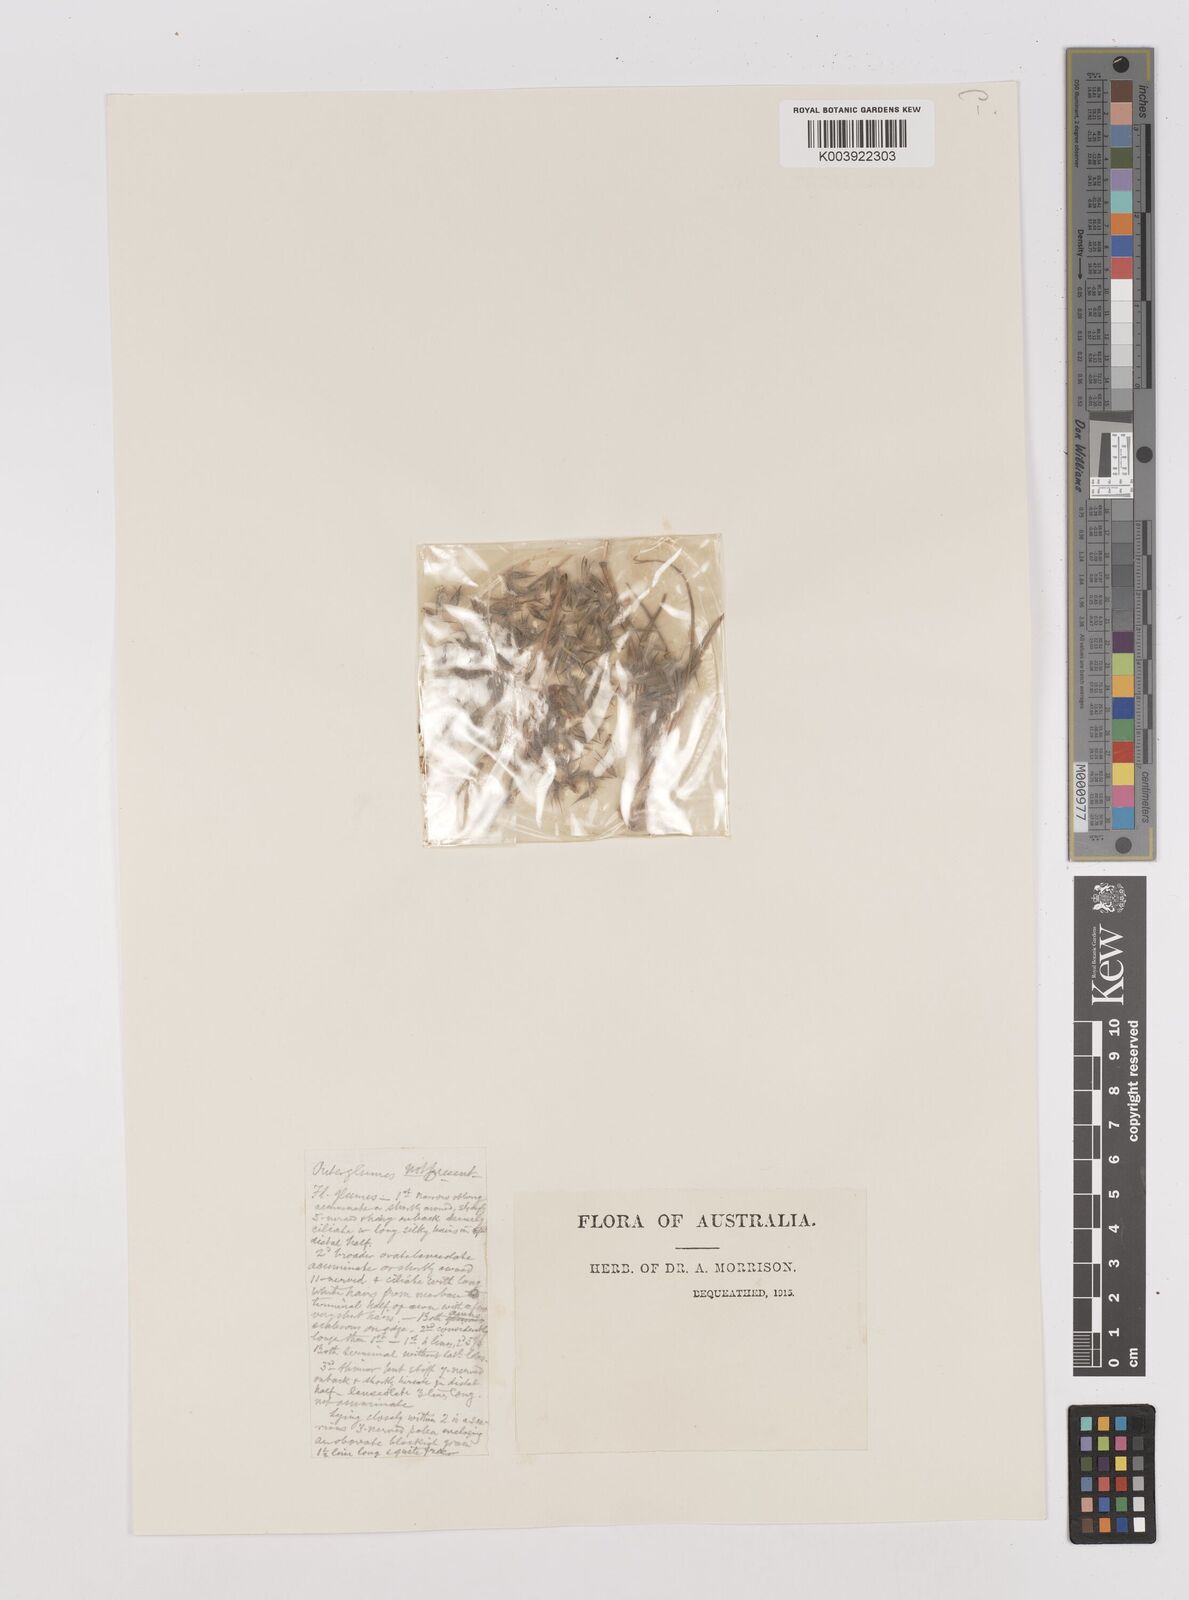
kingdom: Plantae
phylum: Tracheophyta
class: Liliopsida
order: Poales
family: Poaceae
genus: Neurachne
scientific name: Neurachne muelleri
